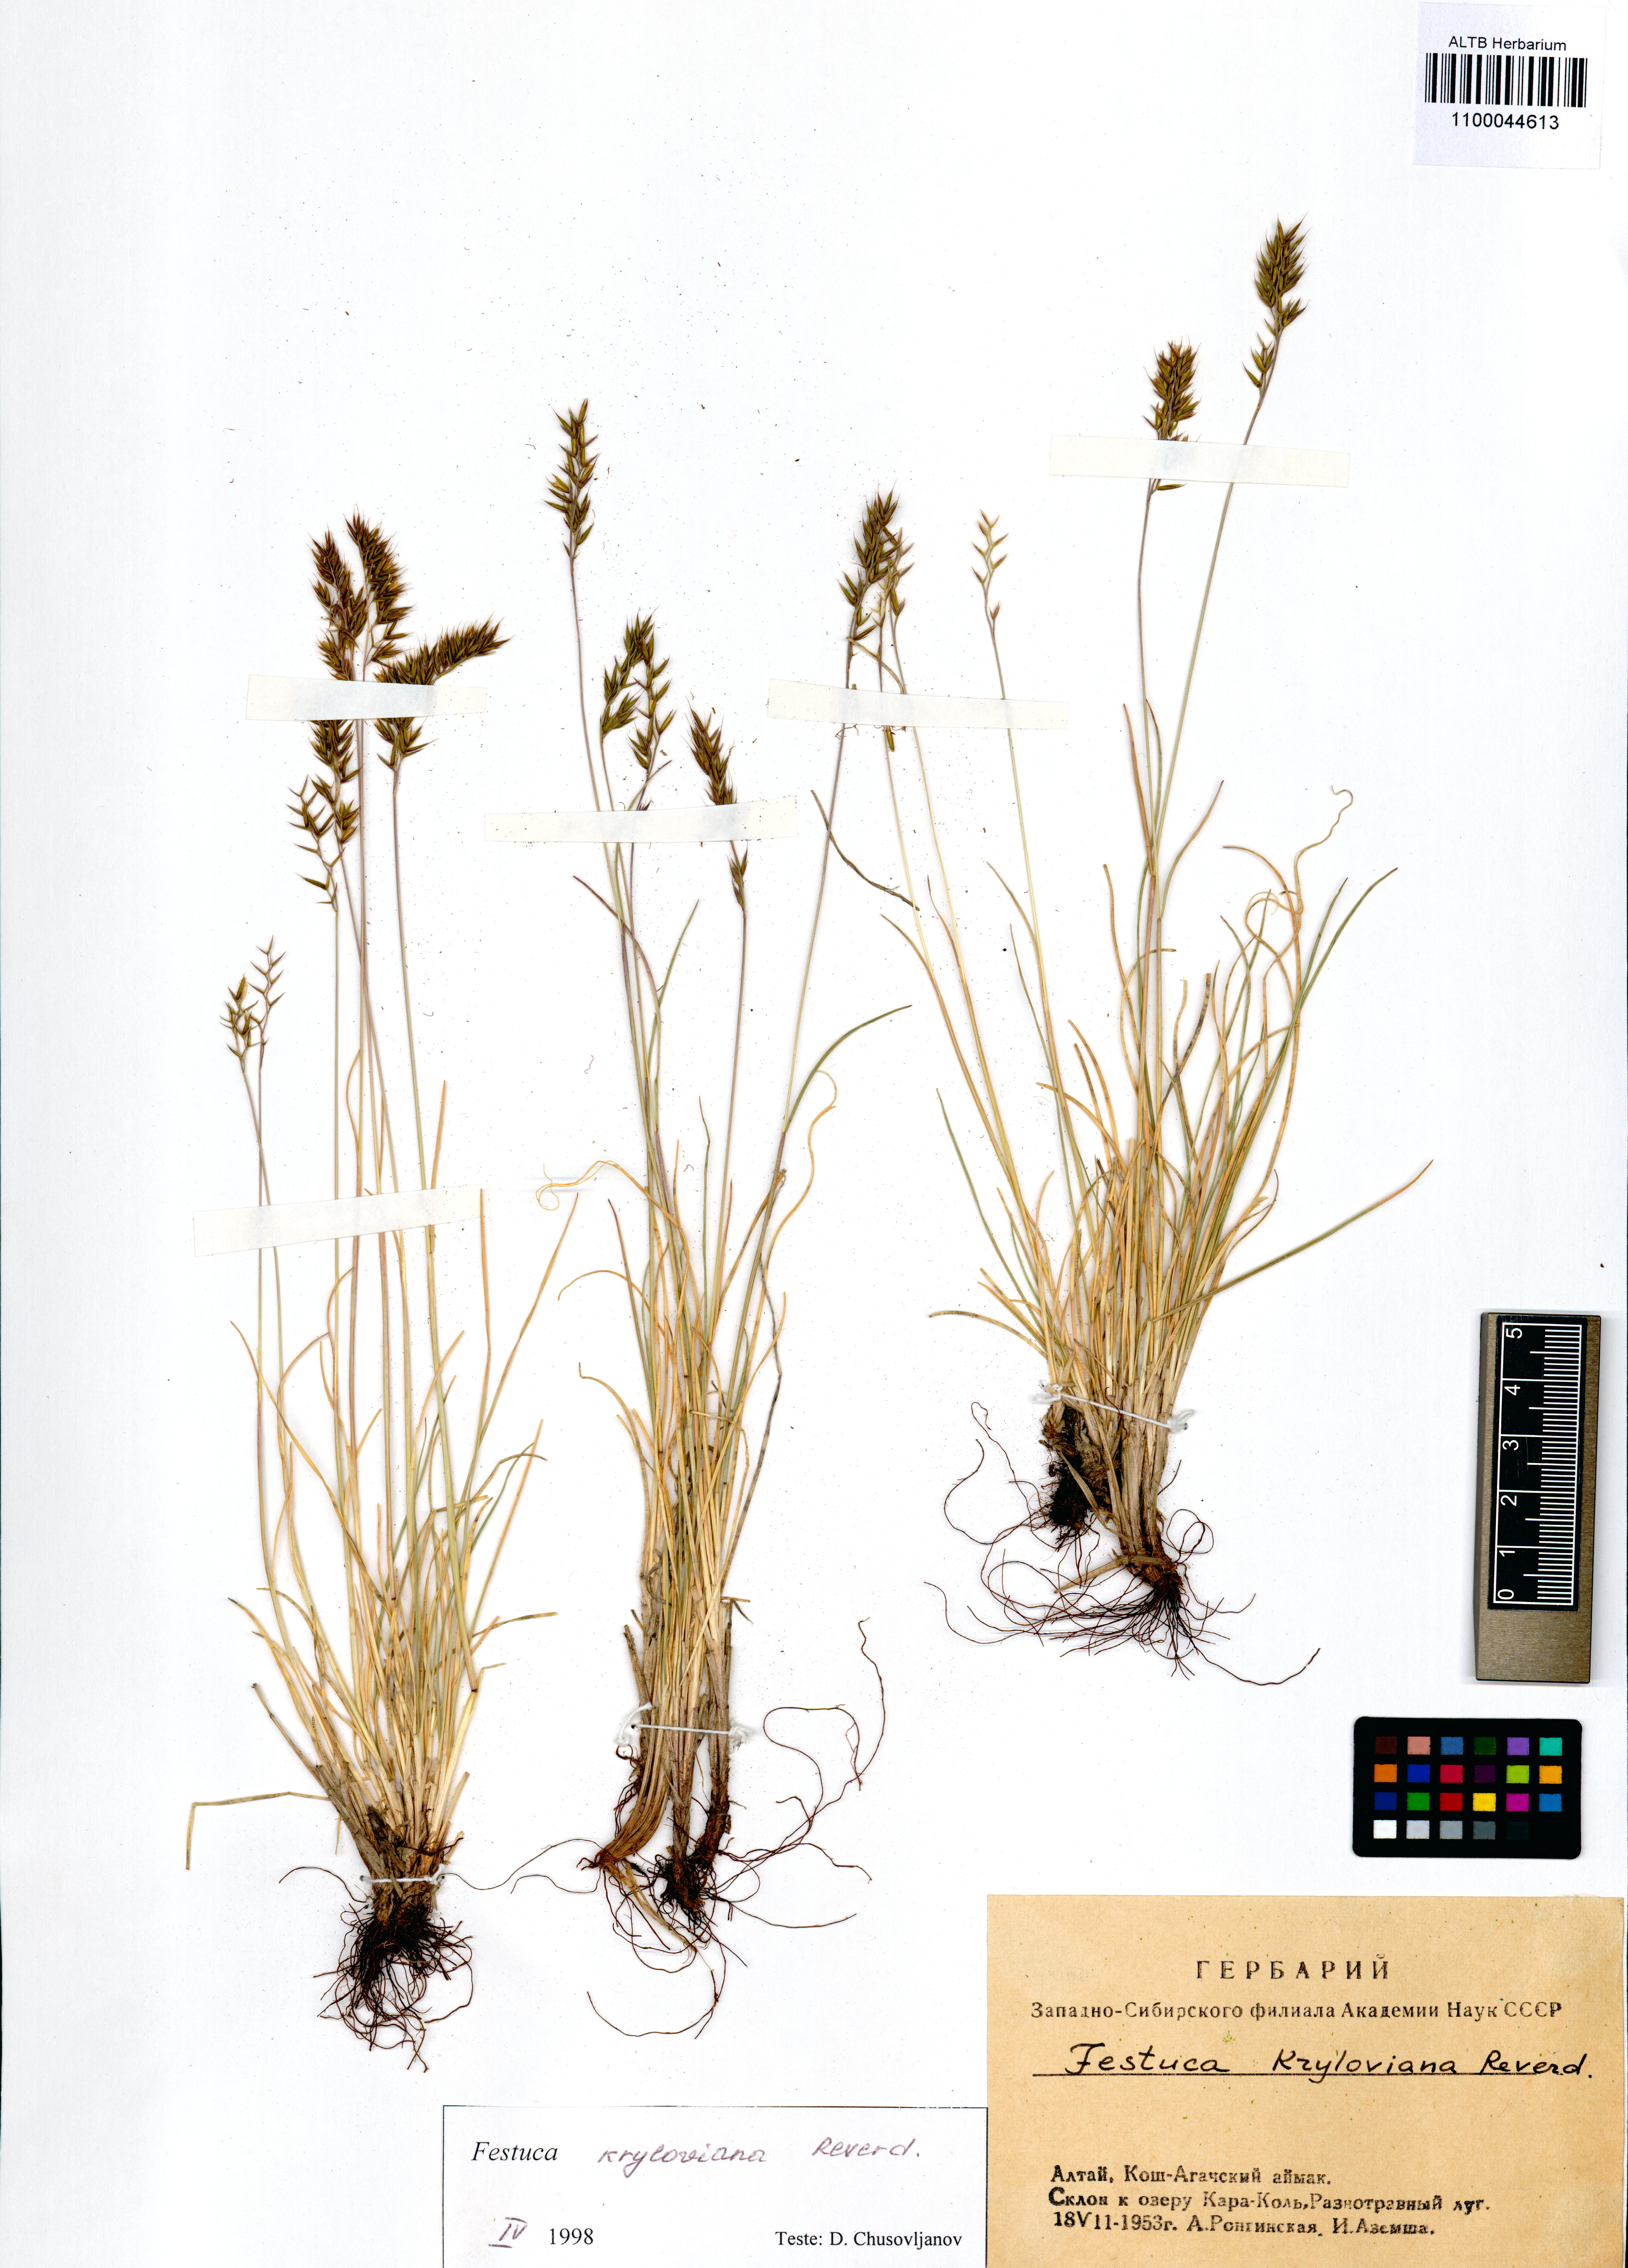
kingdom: Plantae
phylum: Tracheophyta
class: Liliopsida
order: Poales
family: Poaceae
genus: Festuca
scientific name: Festuca kryloviana
